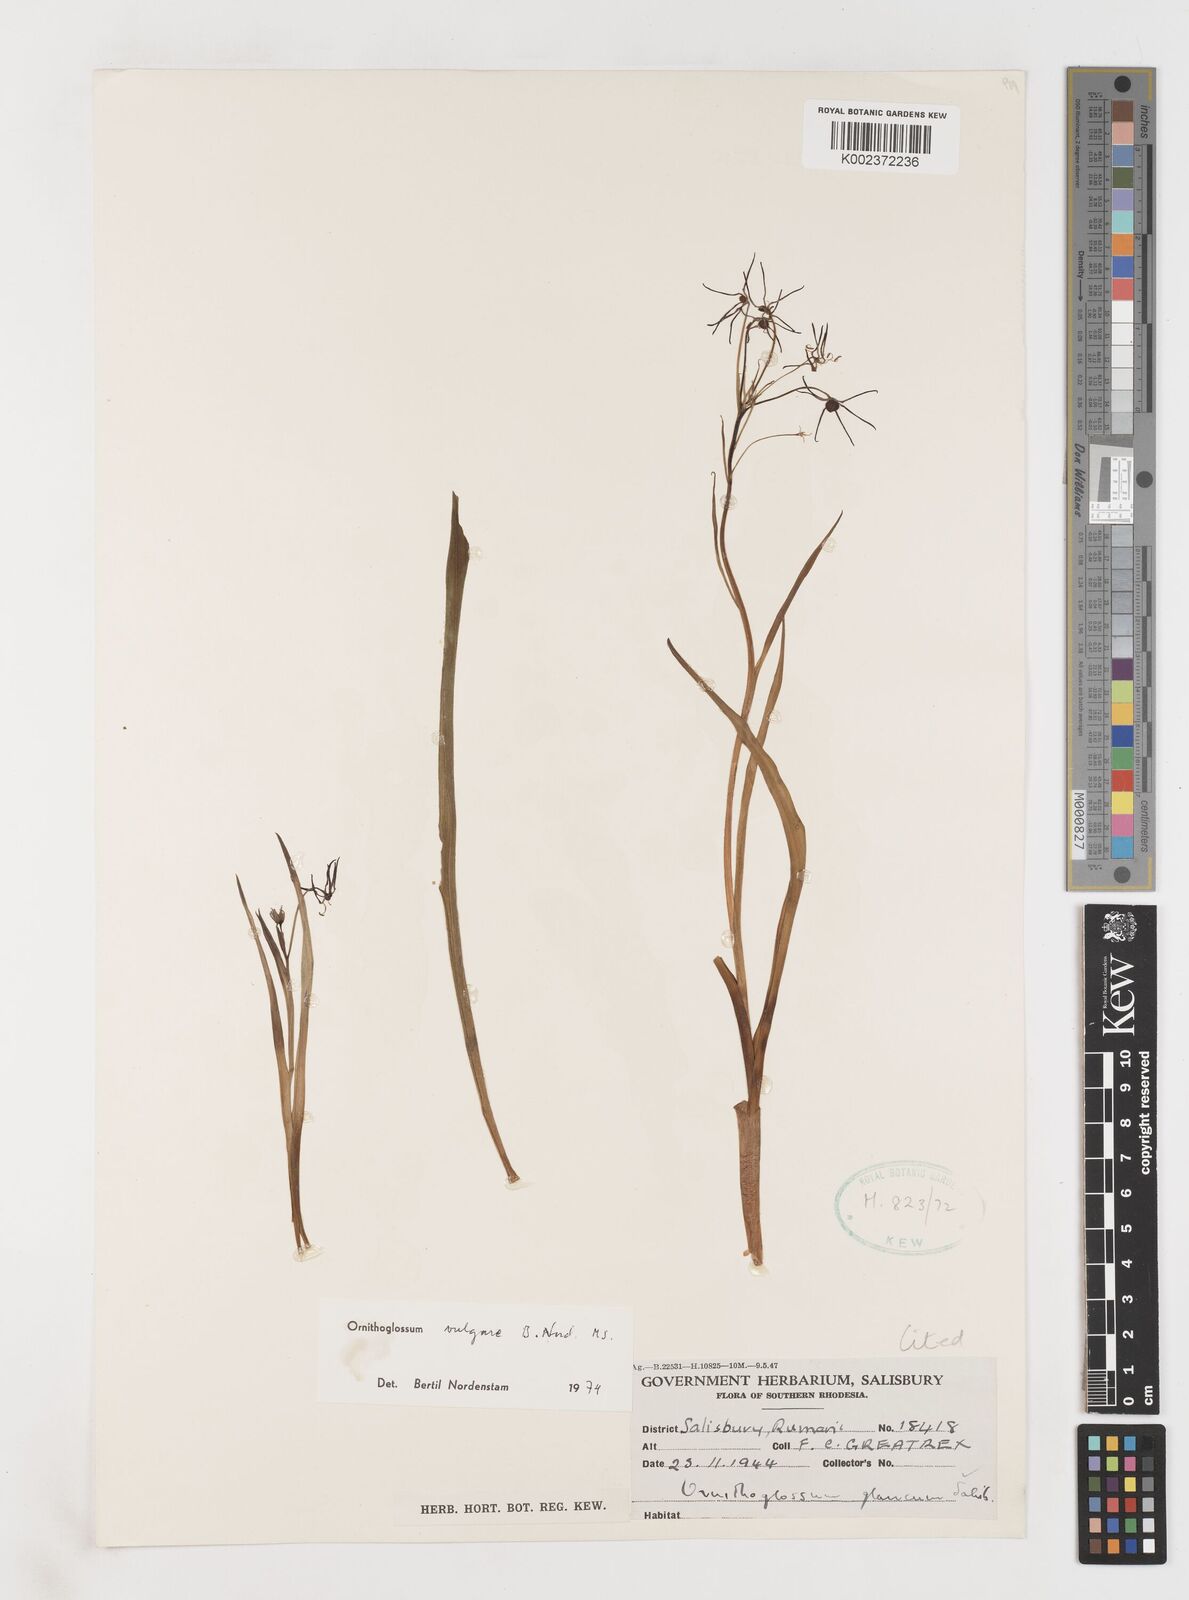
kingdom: Plantae
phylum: Tracheophyta
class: Liliopsida
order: Liliales
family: Colchicaceae
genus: Ornithoglossum
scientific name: Ornithoglossum vulgare
